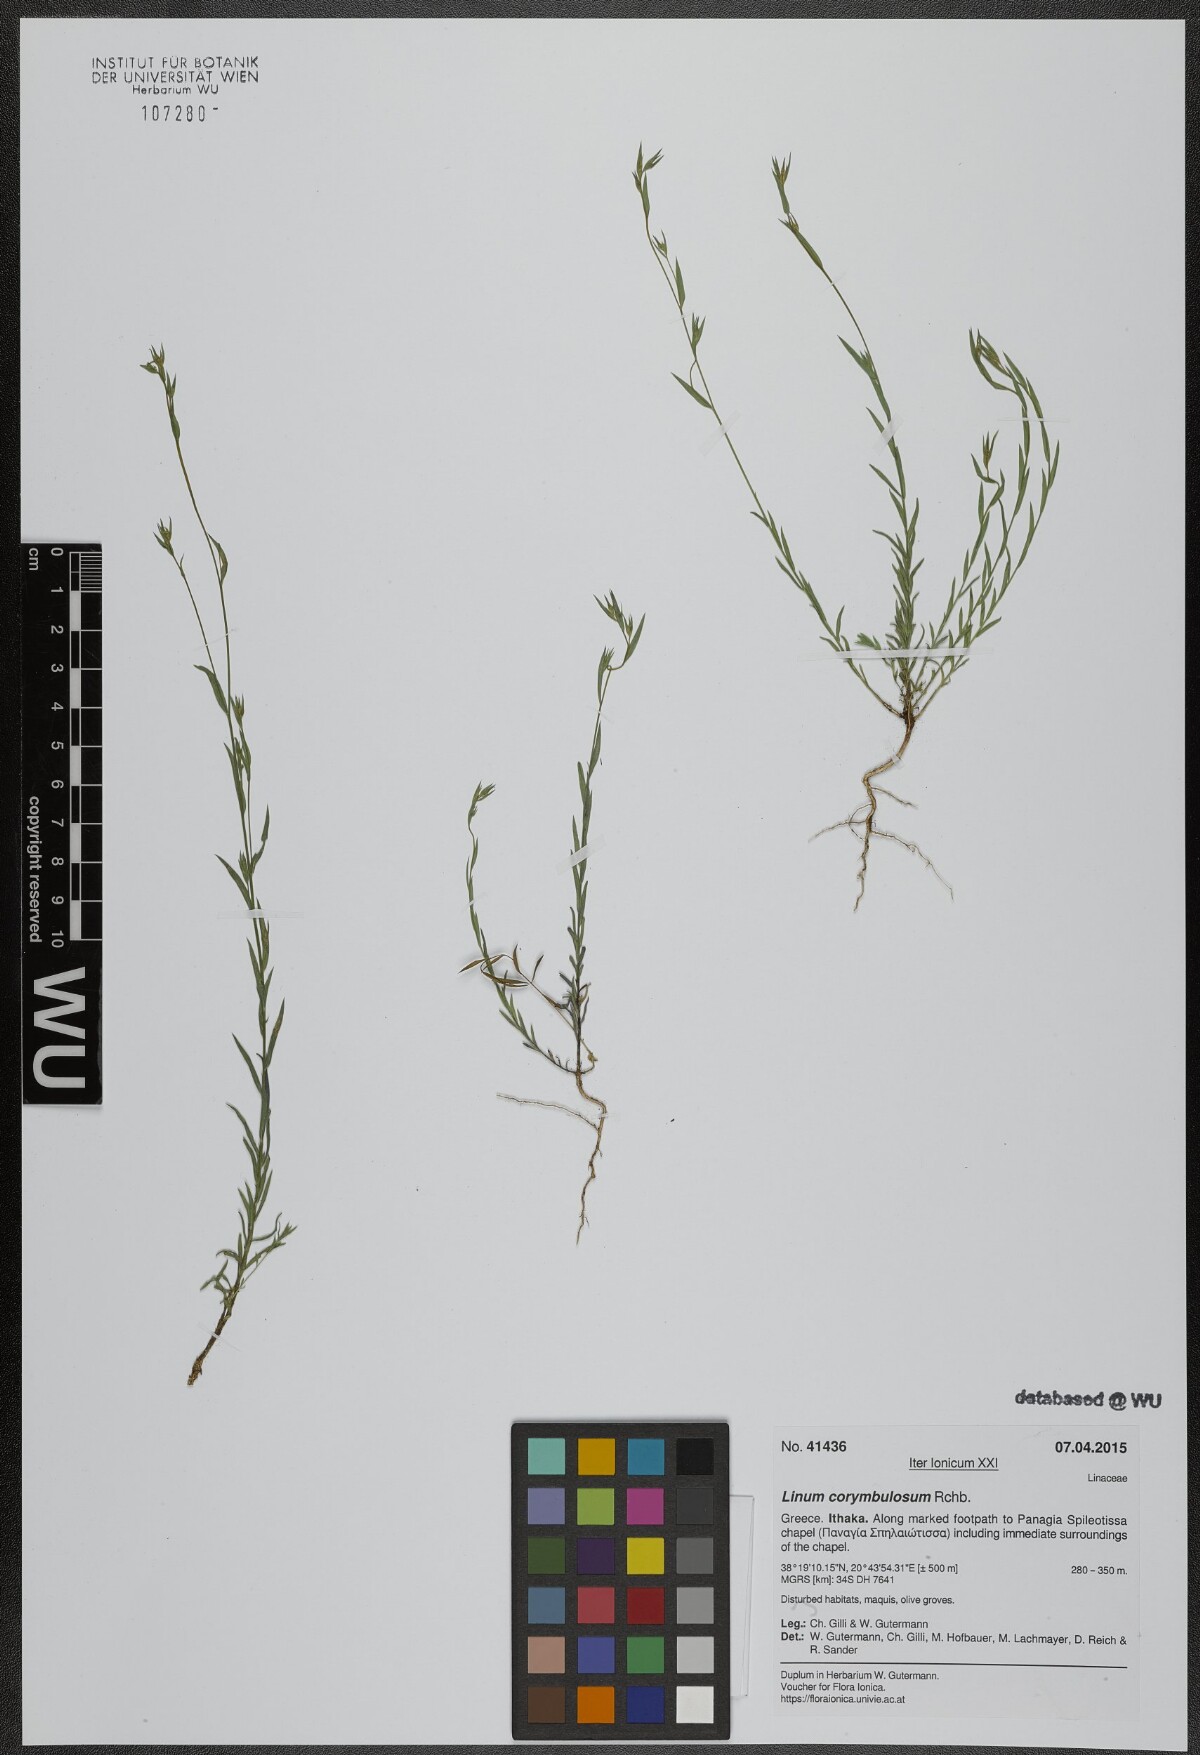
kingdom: Plantae
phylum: Tracheophyta
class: Magnoliopsida
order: Malpighiales
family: Linaceae
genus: Linum
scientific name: Linum corymbulosum
